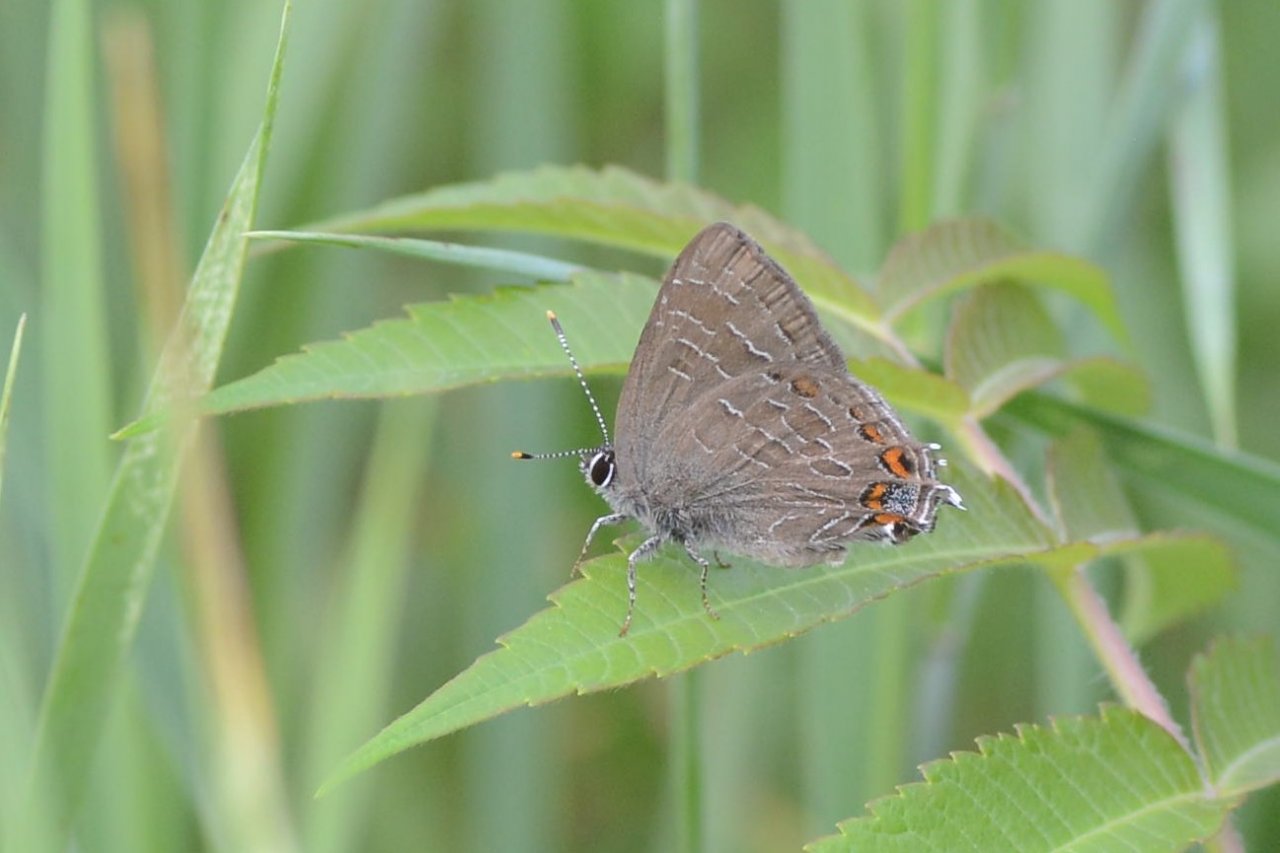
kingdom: Animalia
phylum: Arthropoda
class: Insecta
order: Lepidoptera
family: Lycaenidae
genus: Harkenclenus
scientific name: Harkenclenus titus
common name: Coral Hairstreak
